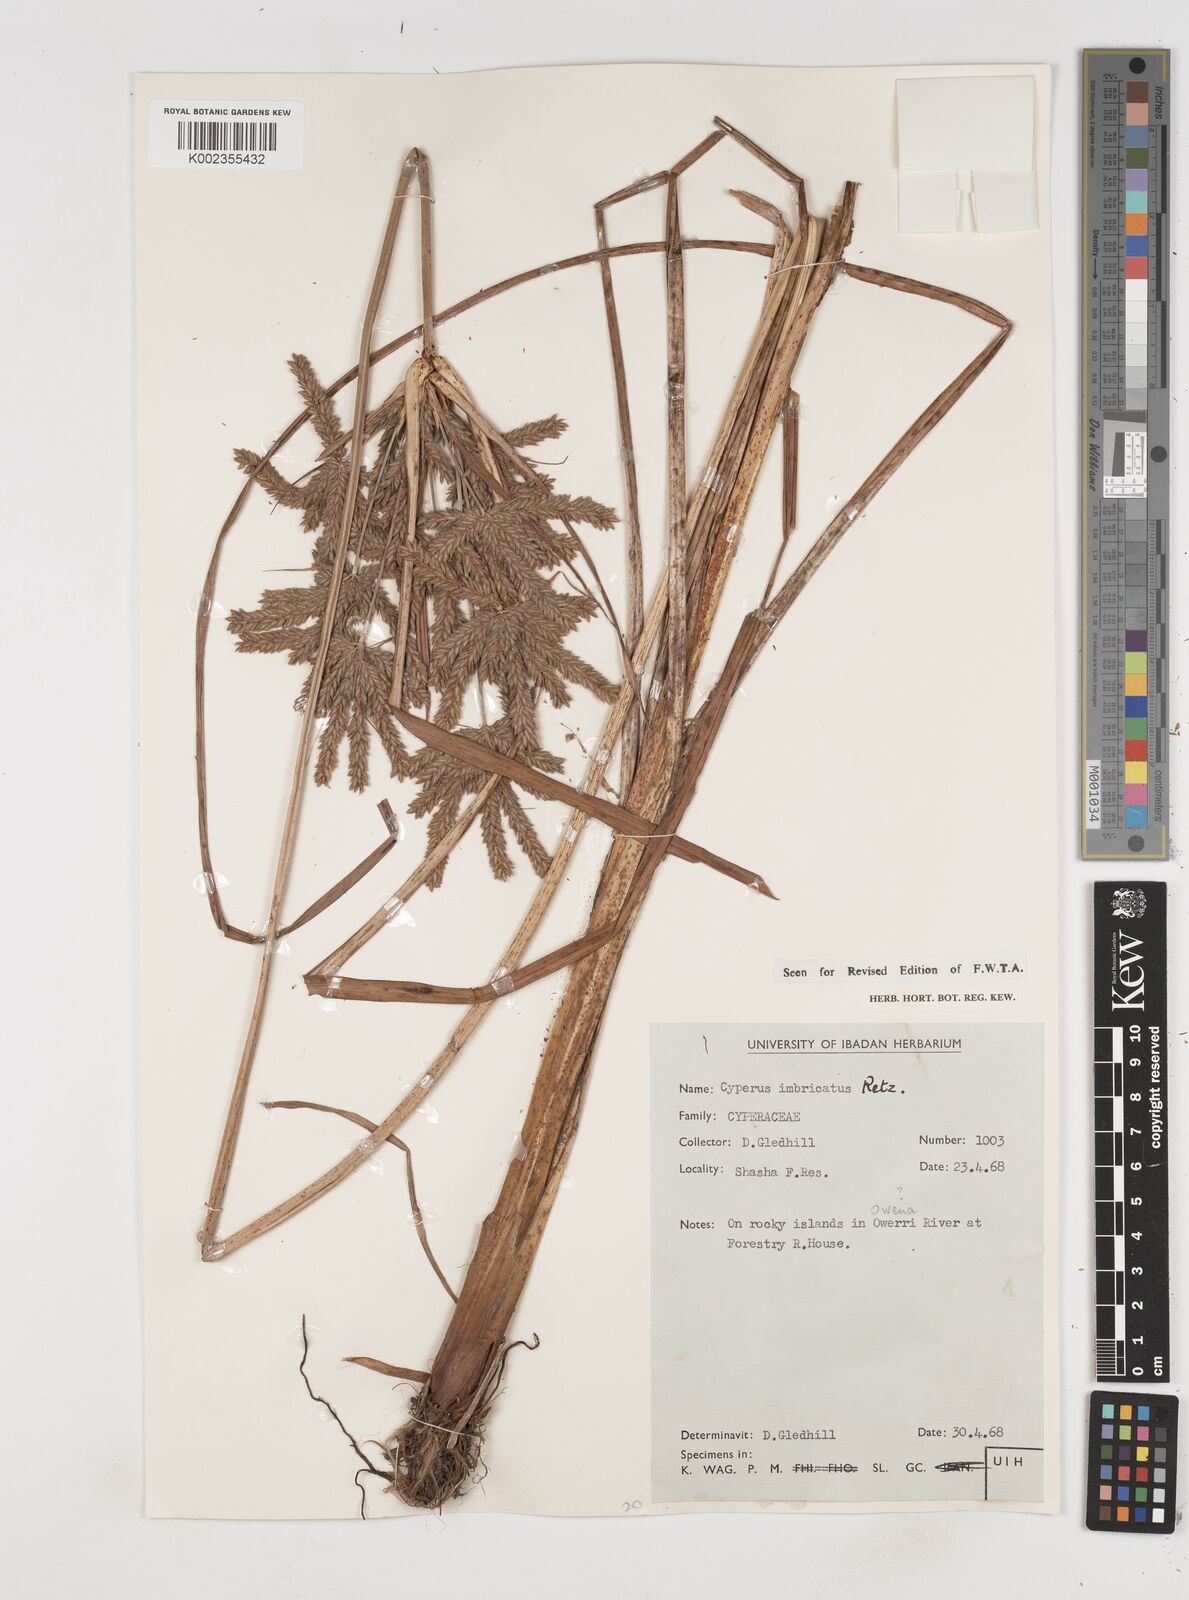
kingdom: Plantae
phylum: Tracheophyta
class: Liliopsida
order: Poales
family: Cyperaceae
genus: Cyperus
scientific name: Cyperus imbricatus
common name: Shingle flatsedge
